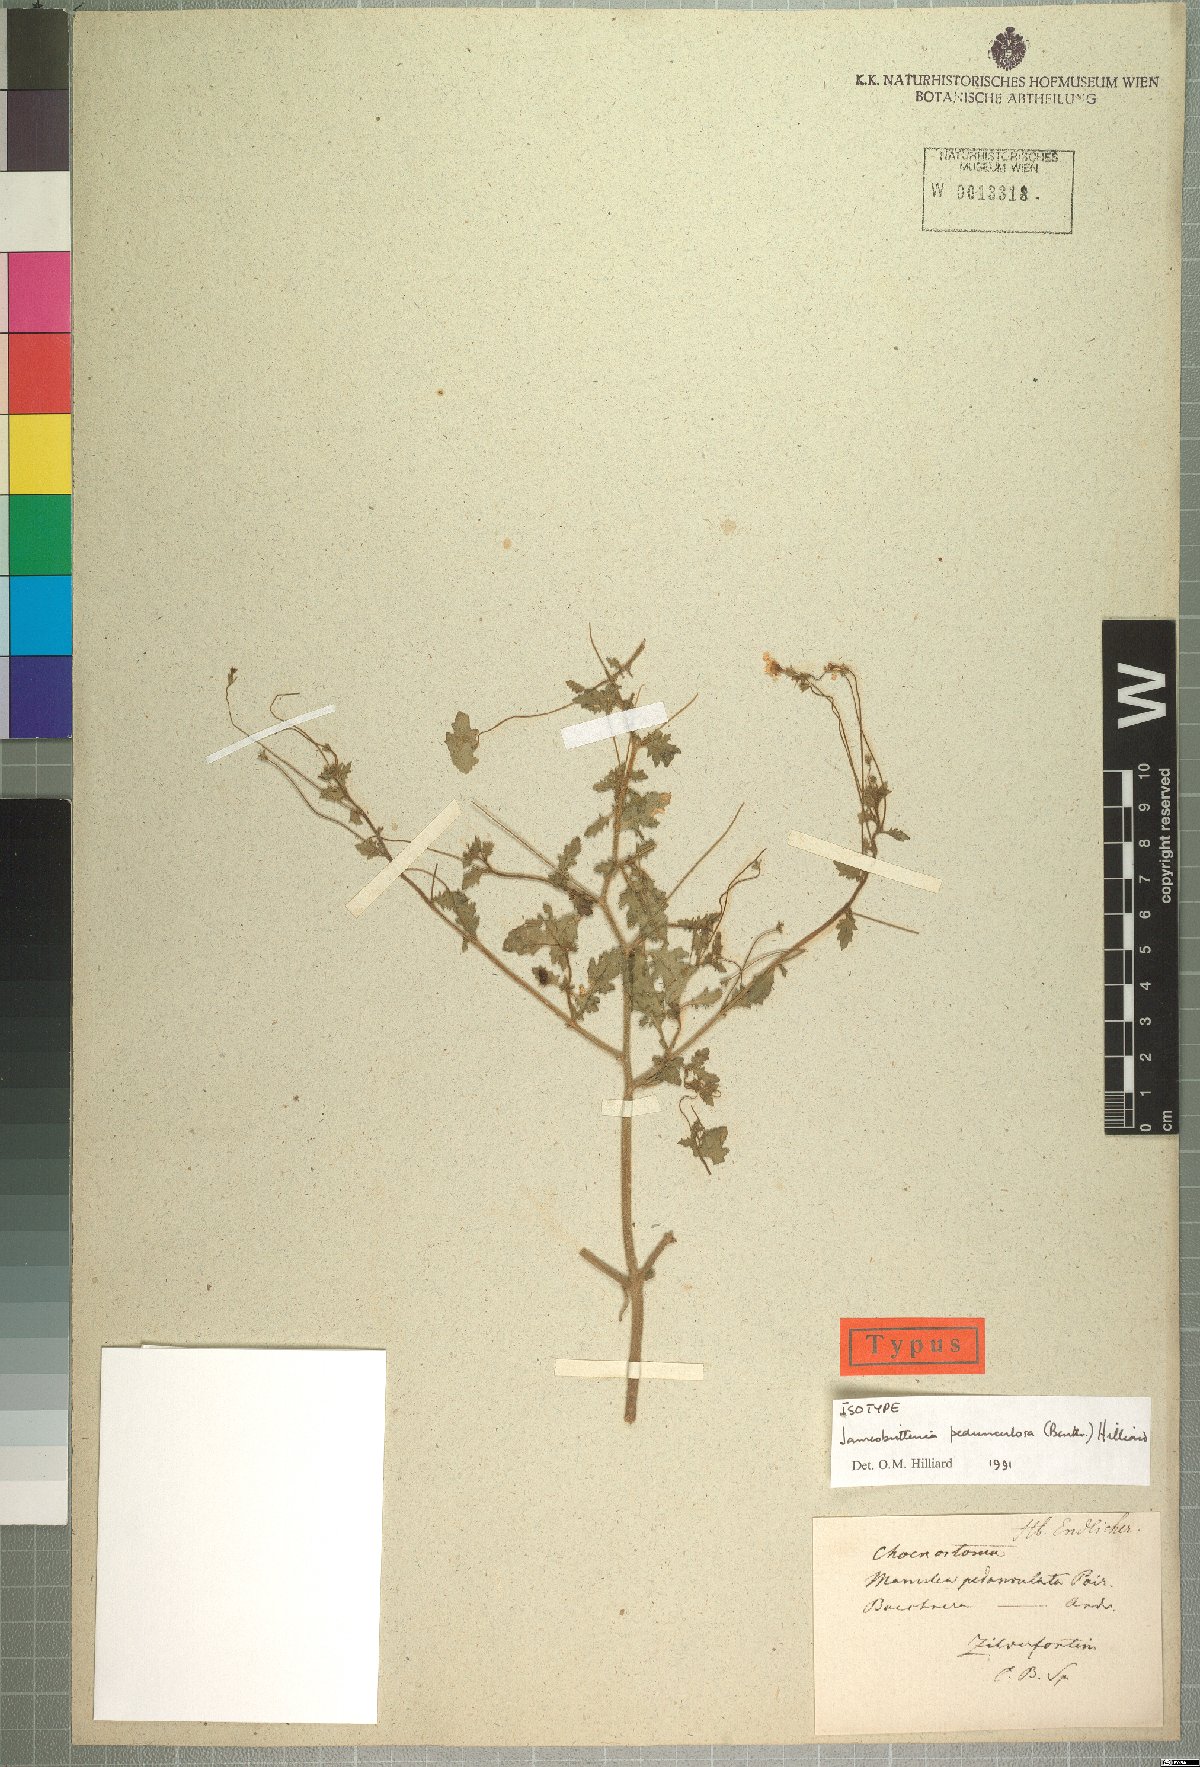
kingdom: Plantae
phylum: Tracheophyta
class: Magnoliopsida
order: Lamiales
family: Scrophulariaceae
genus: Jamesbrittenia
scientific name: Jamesbrittenia pedunculosa
